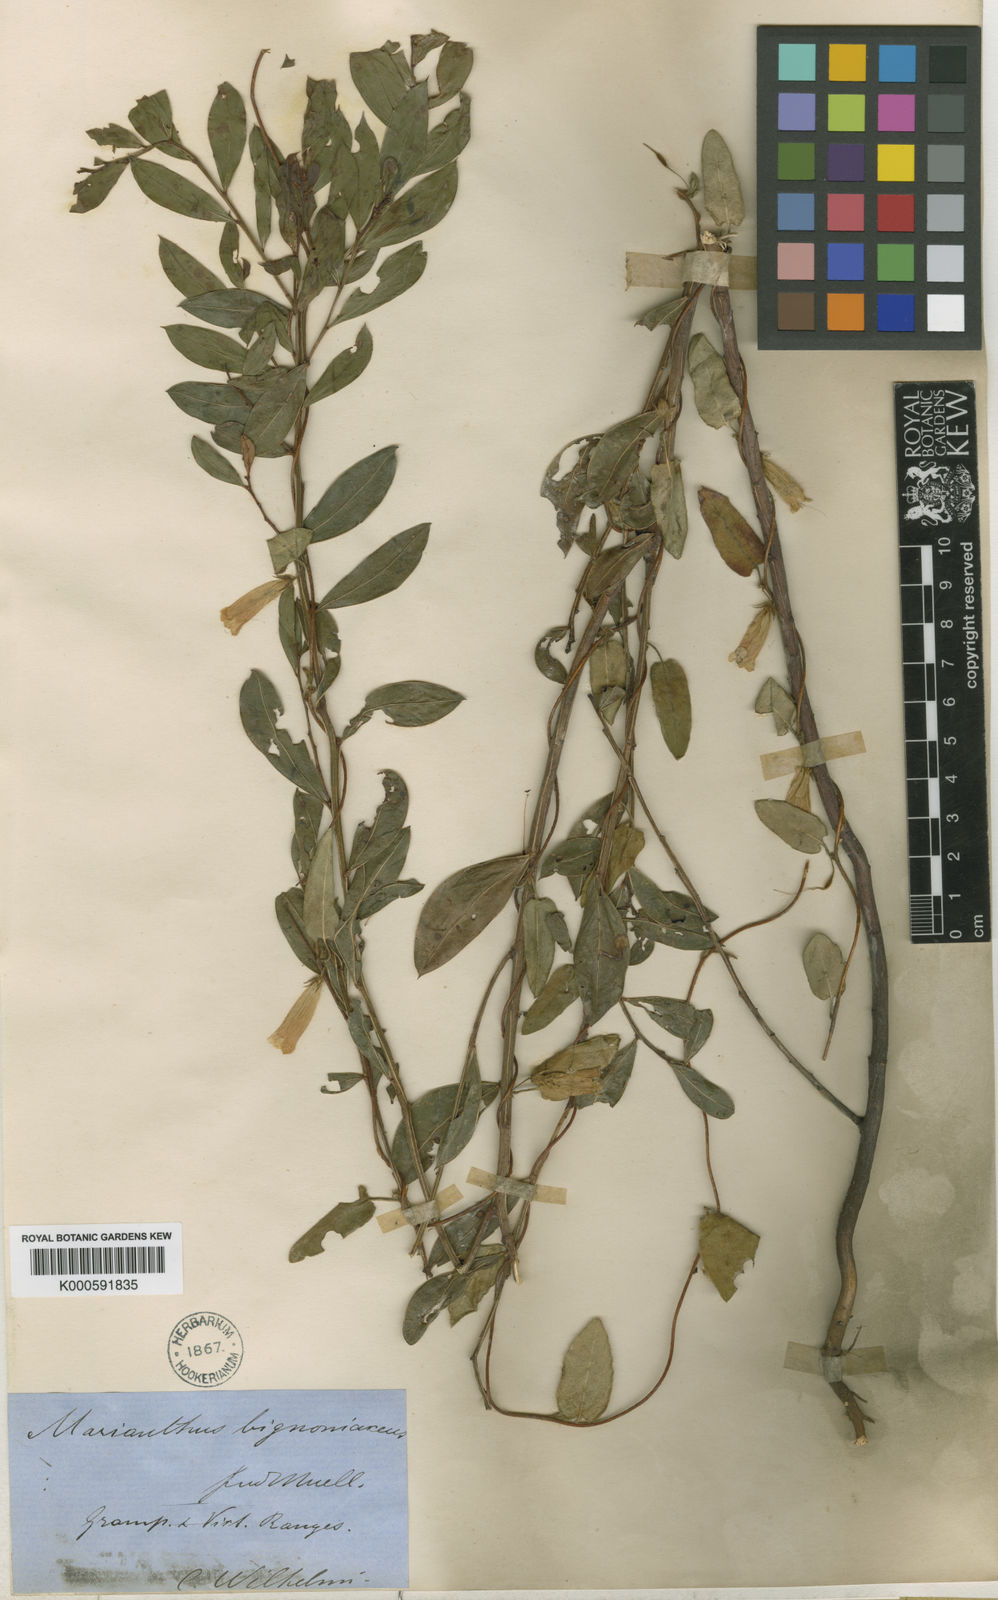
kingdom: Plantae
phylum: Tracheophyta
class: Magnoliopsida
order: Apiales
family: Pittosporaceae
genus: Marianthus
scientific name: Marianthus bignoniaceus
